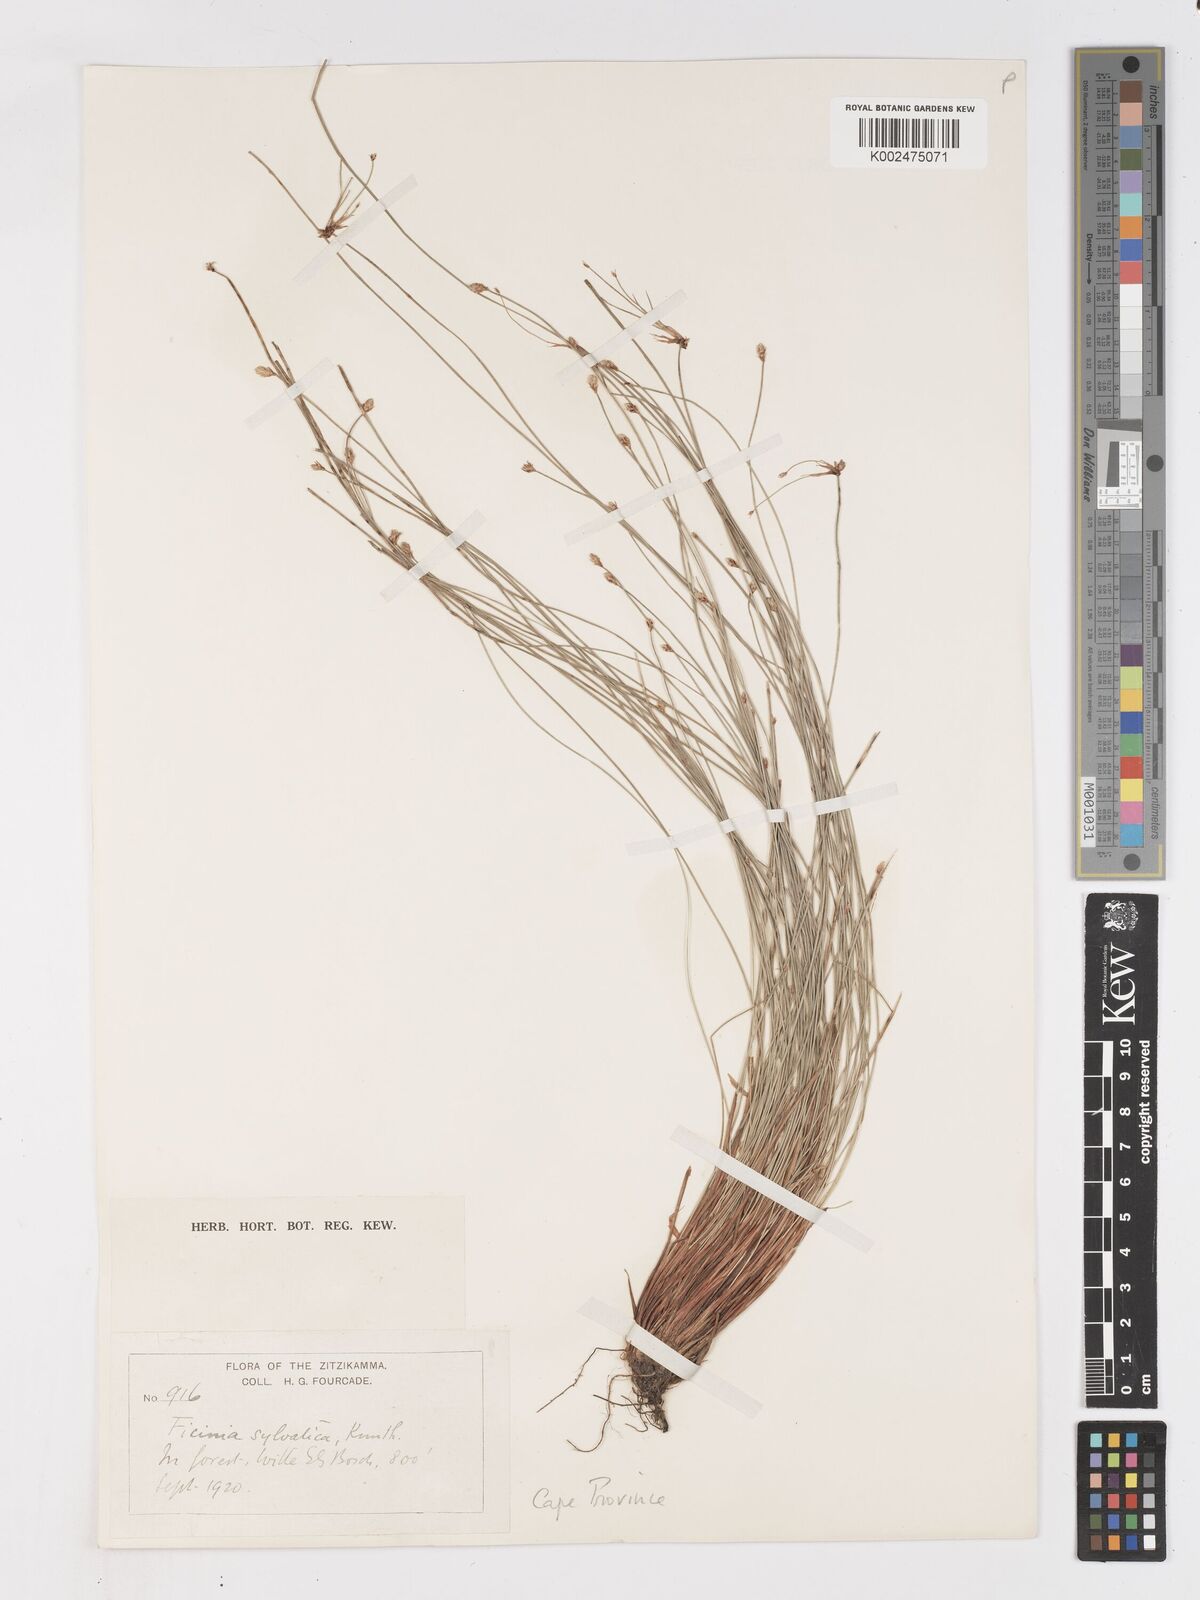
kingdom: Plantae
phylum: Tracheophyta
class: Liliopsida
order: Poales
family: Cyperaceae
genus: Ficinia
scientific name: Ficinia sylvatica
